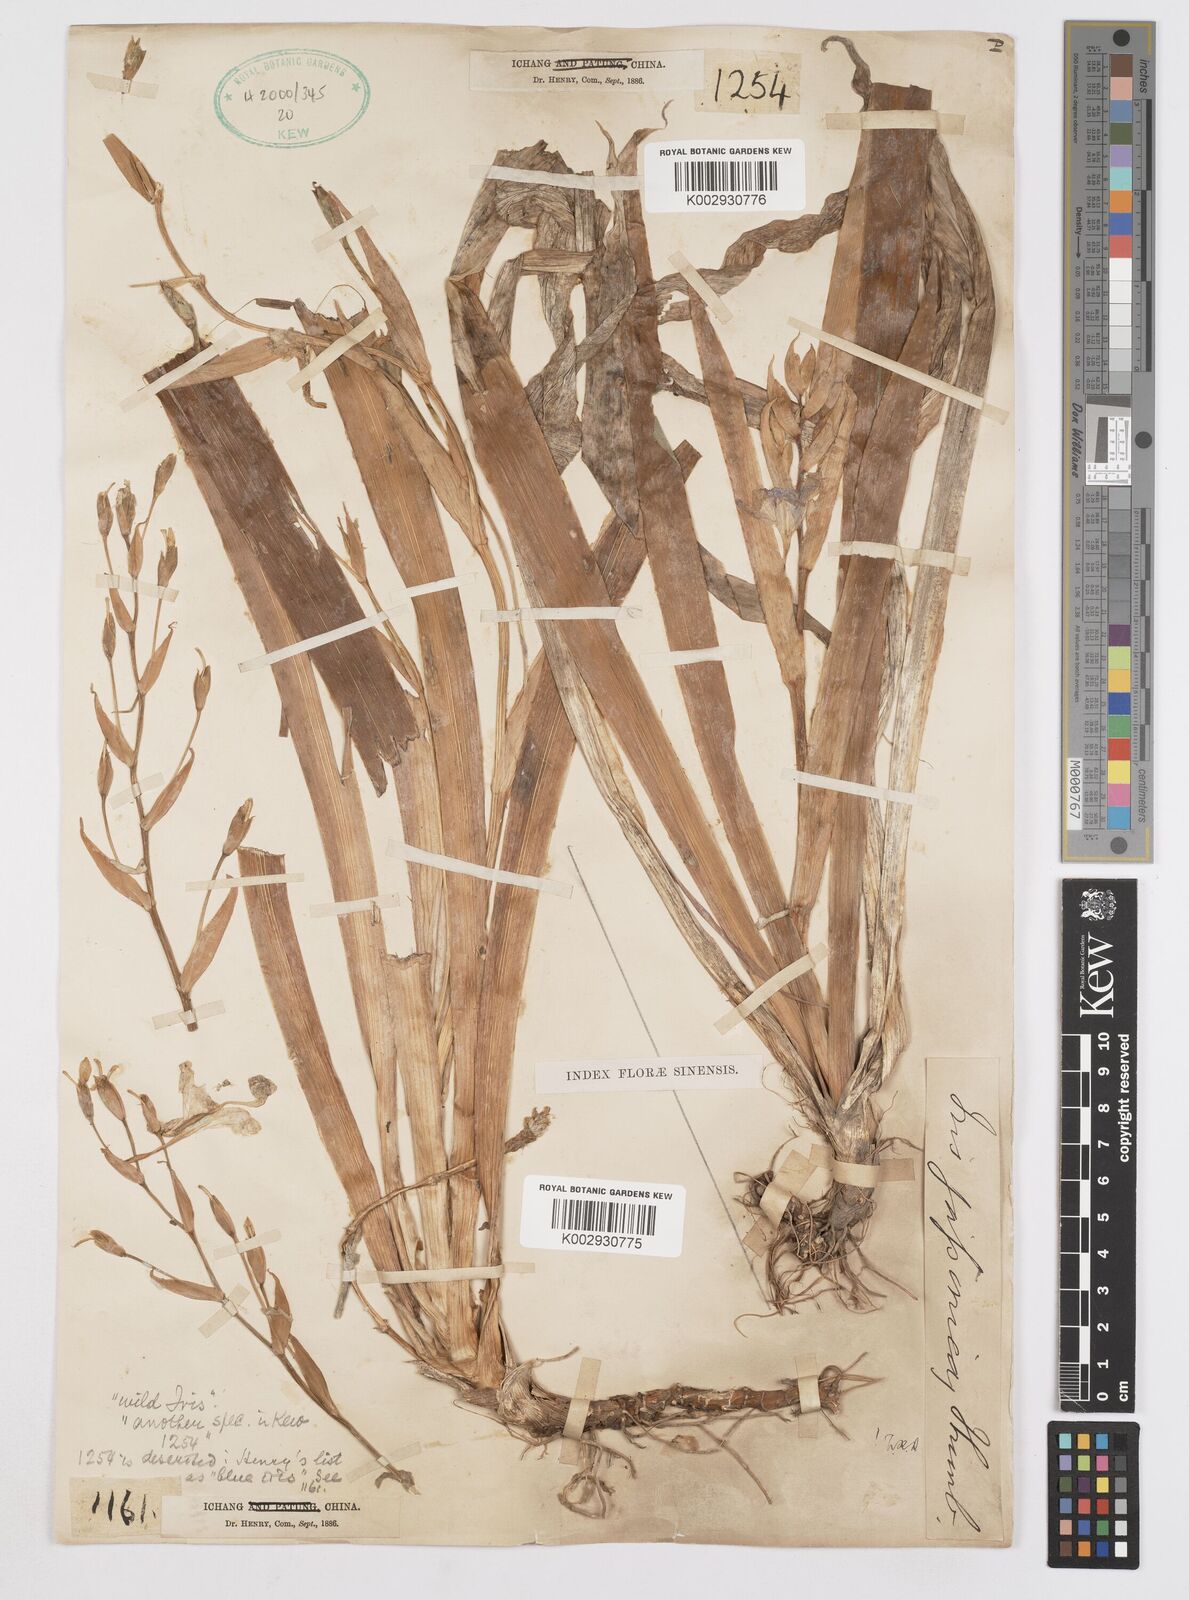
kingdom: Plantae
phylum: Tracheophyta
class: Liliopsida
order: Asparagales
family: Iridaceae
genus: Iris
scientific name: Iris japonica
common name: Butterfly-flower
